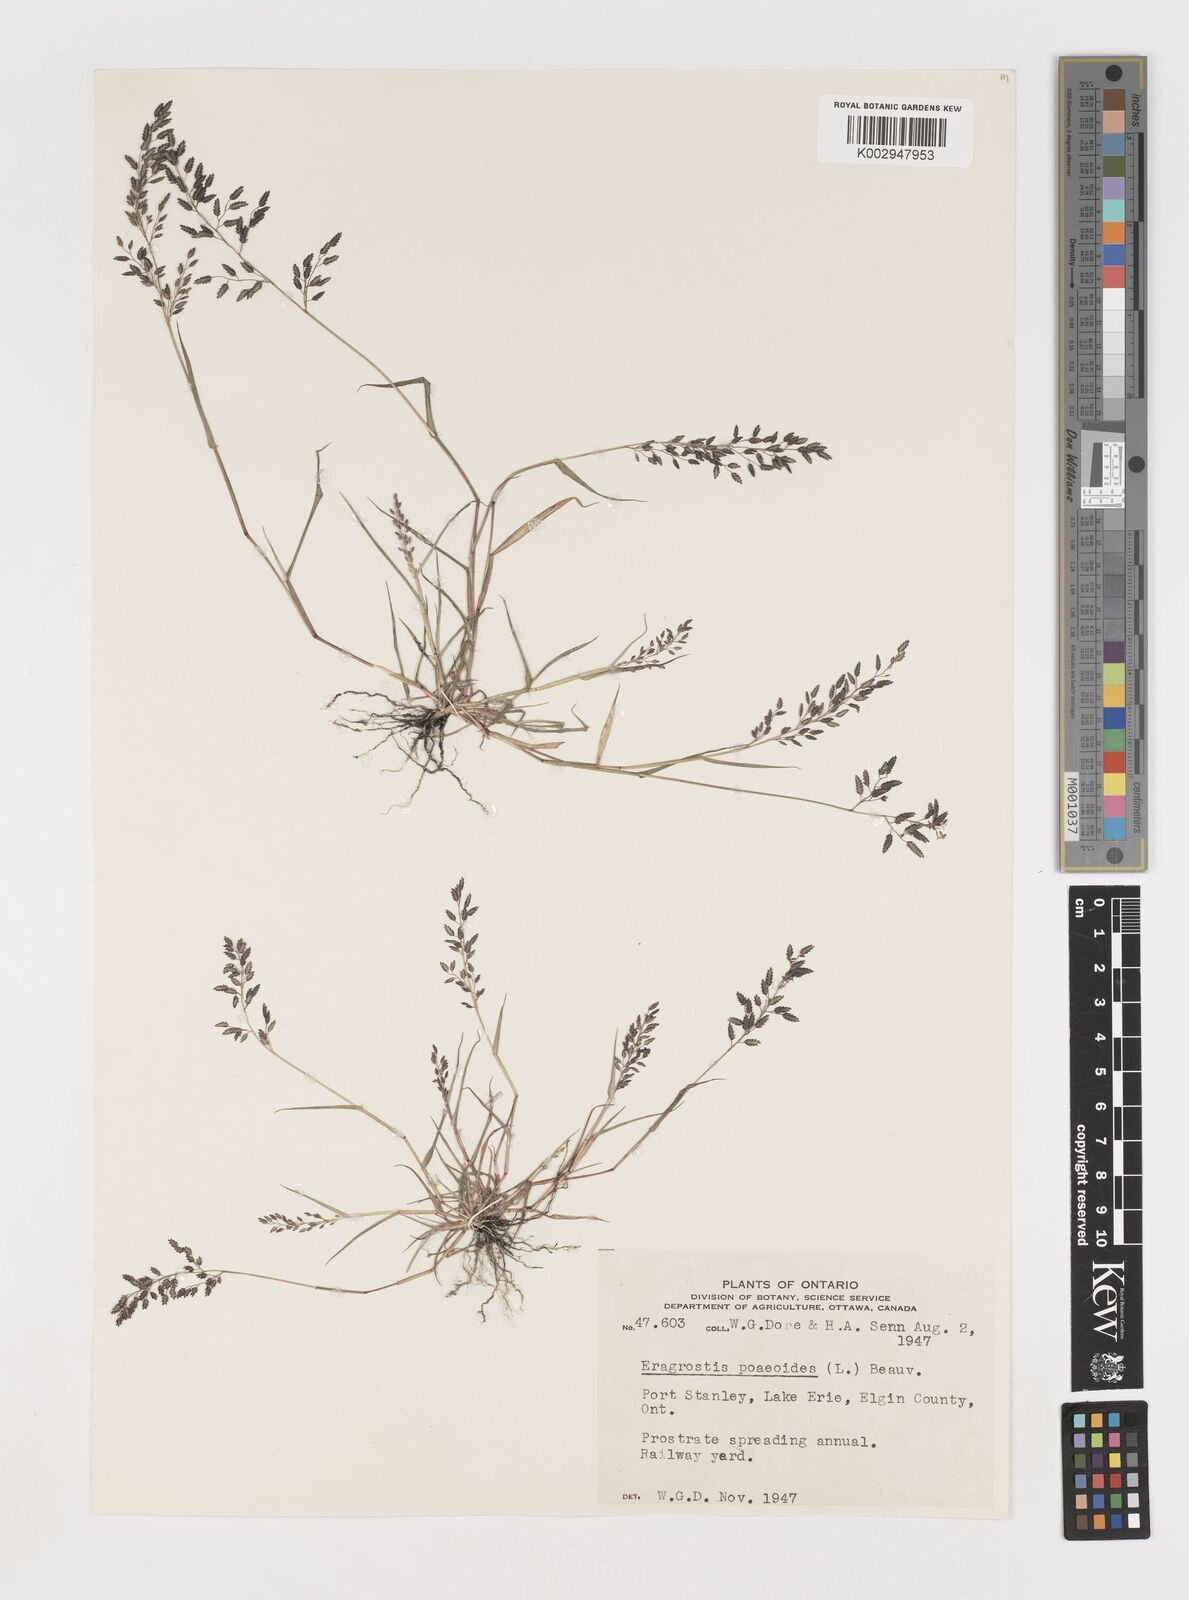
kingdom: Plantae
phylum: Tracheophyta
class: Liliopsida
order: Poales
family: Poaceae
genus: Eragrostis
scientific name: Eragrostis minor
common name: Small love-grass
